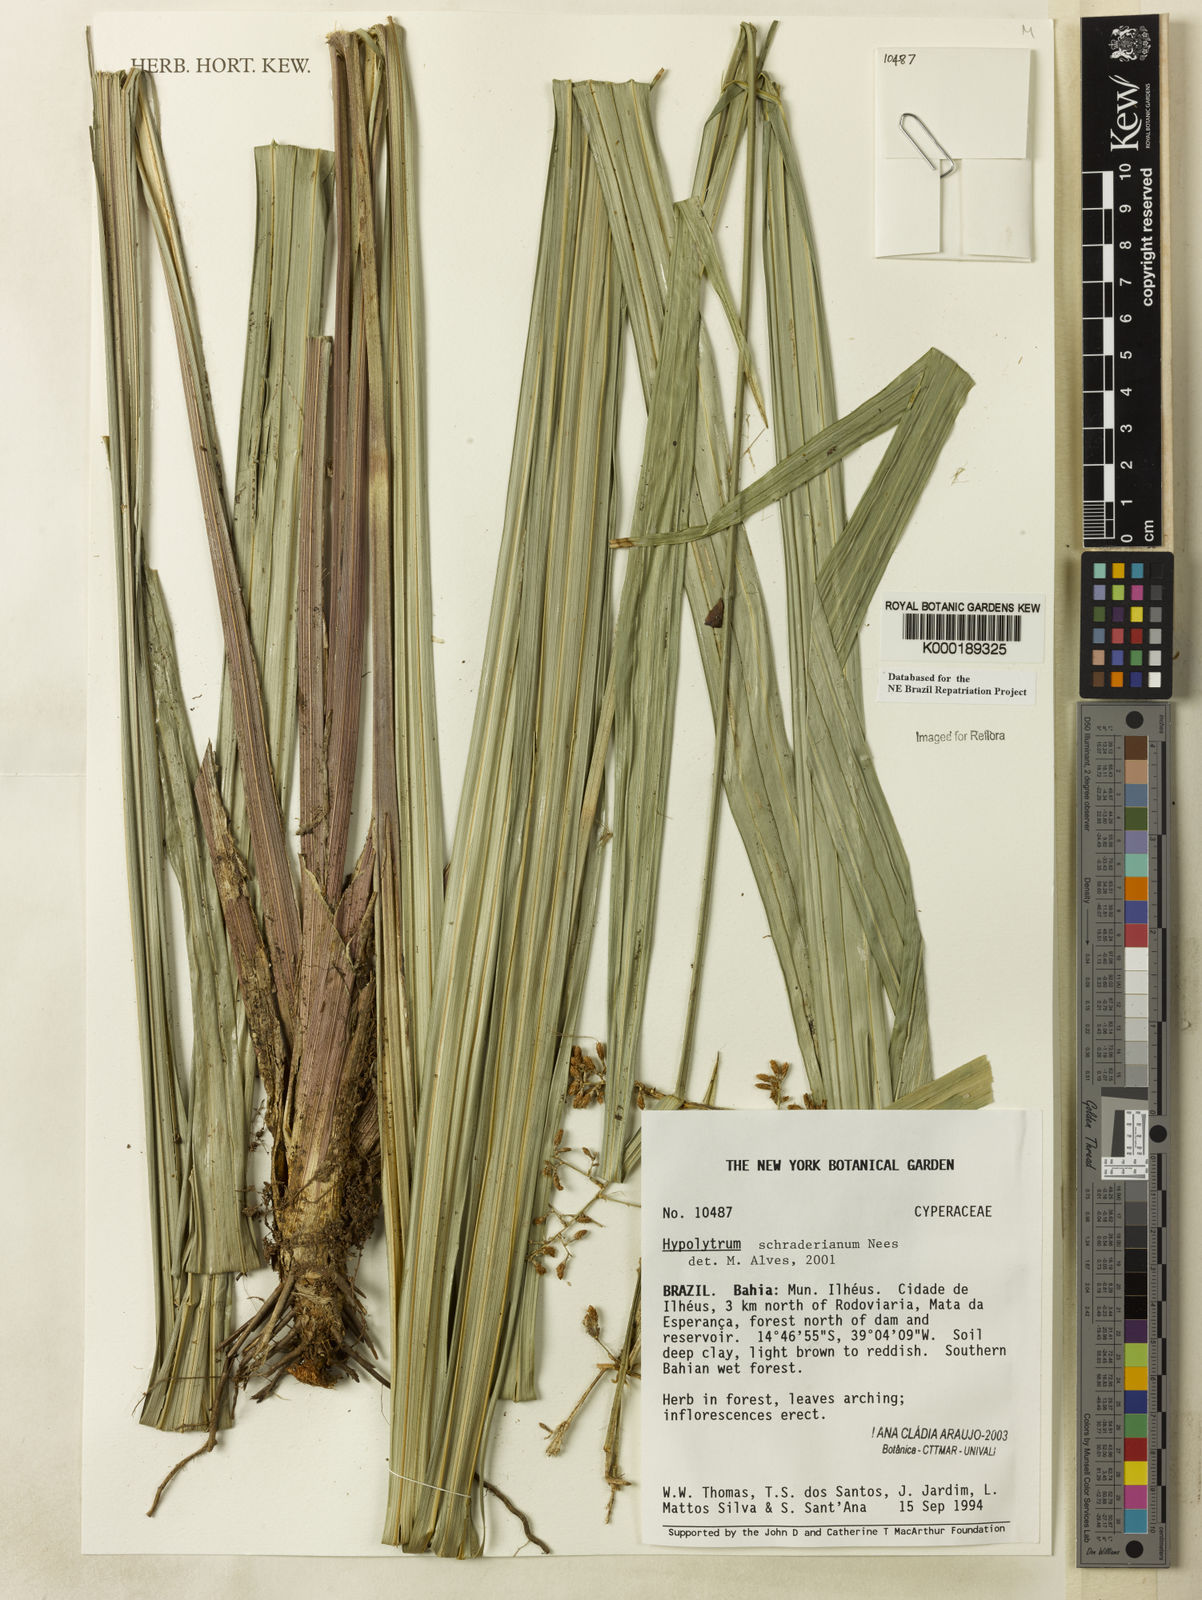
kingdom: Plantae
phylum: Tracheophyta
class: Liliopsida
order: Poales
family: Cyperaceae
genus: Hypolytrum
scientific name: Hypolytrum schraderianum
